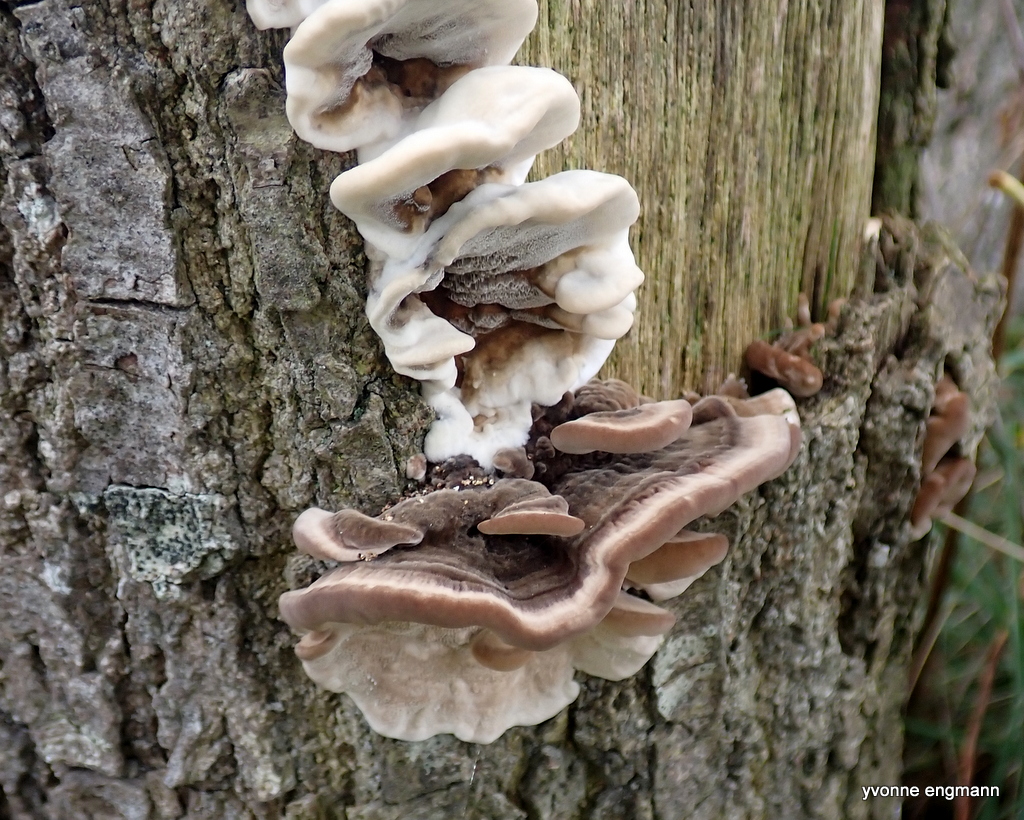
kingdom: Fungi
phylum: Basidiomycota
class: Agaricomycetes
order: Polyporales
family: Phanerochaetaceae
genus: Bjerkandera
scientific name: Bjerkandera adusta
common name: sveden sodporesvamp
